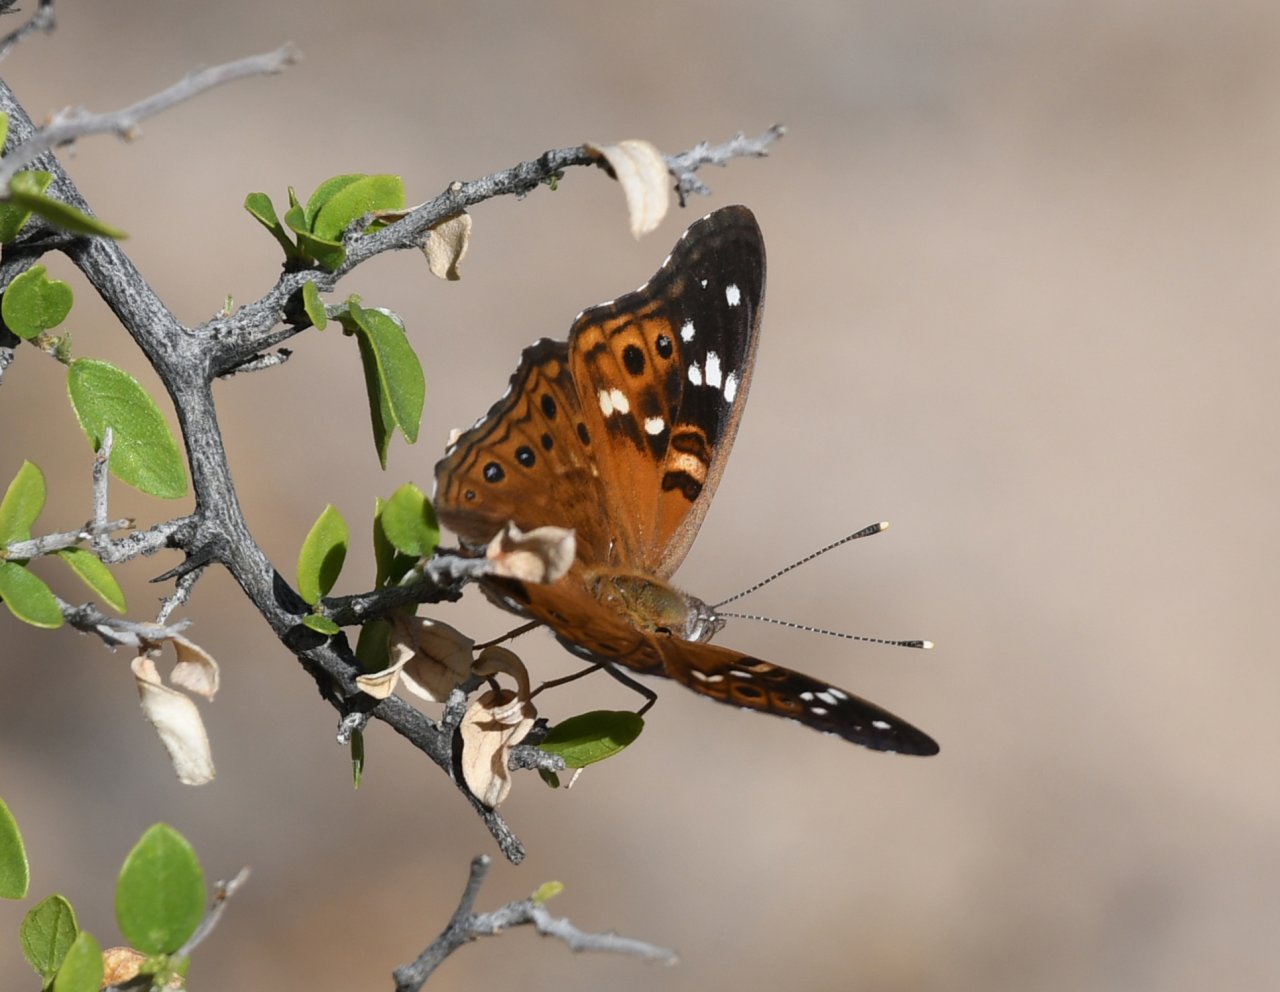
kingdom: Animalia
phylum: Arthropoda
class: Insecta
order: Lepidoptera
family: Nymphalidae
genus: Asterocampa
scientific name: Asterocampa leilia
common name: Empress Leilia
